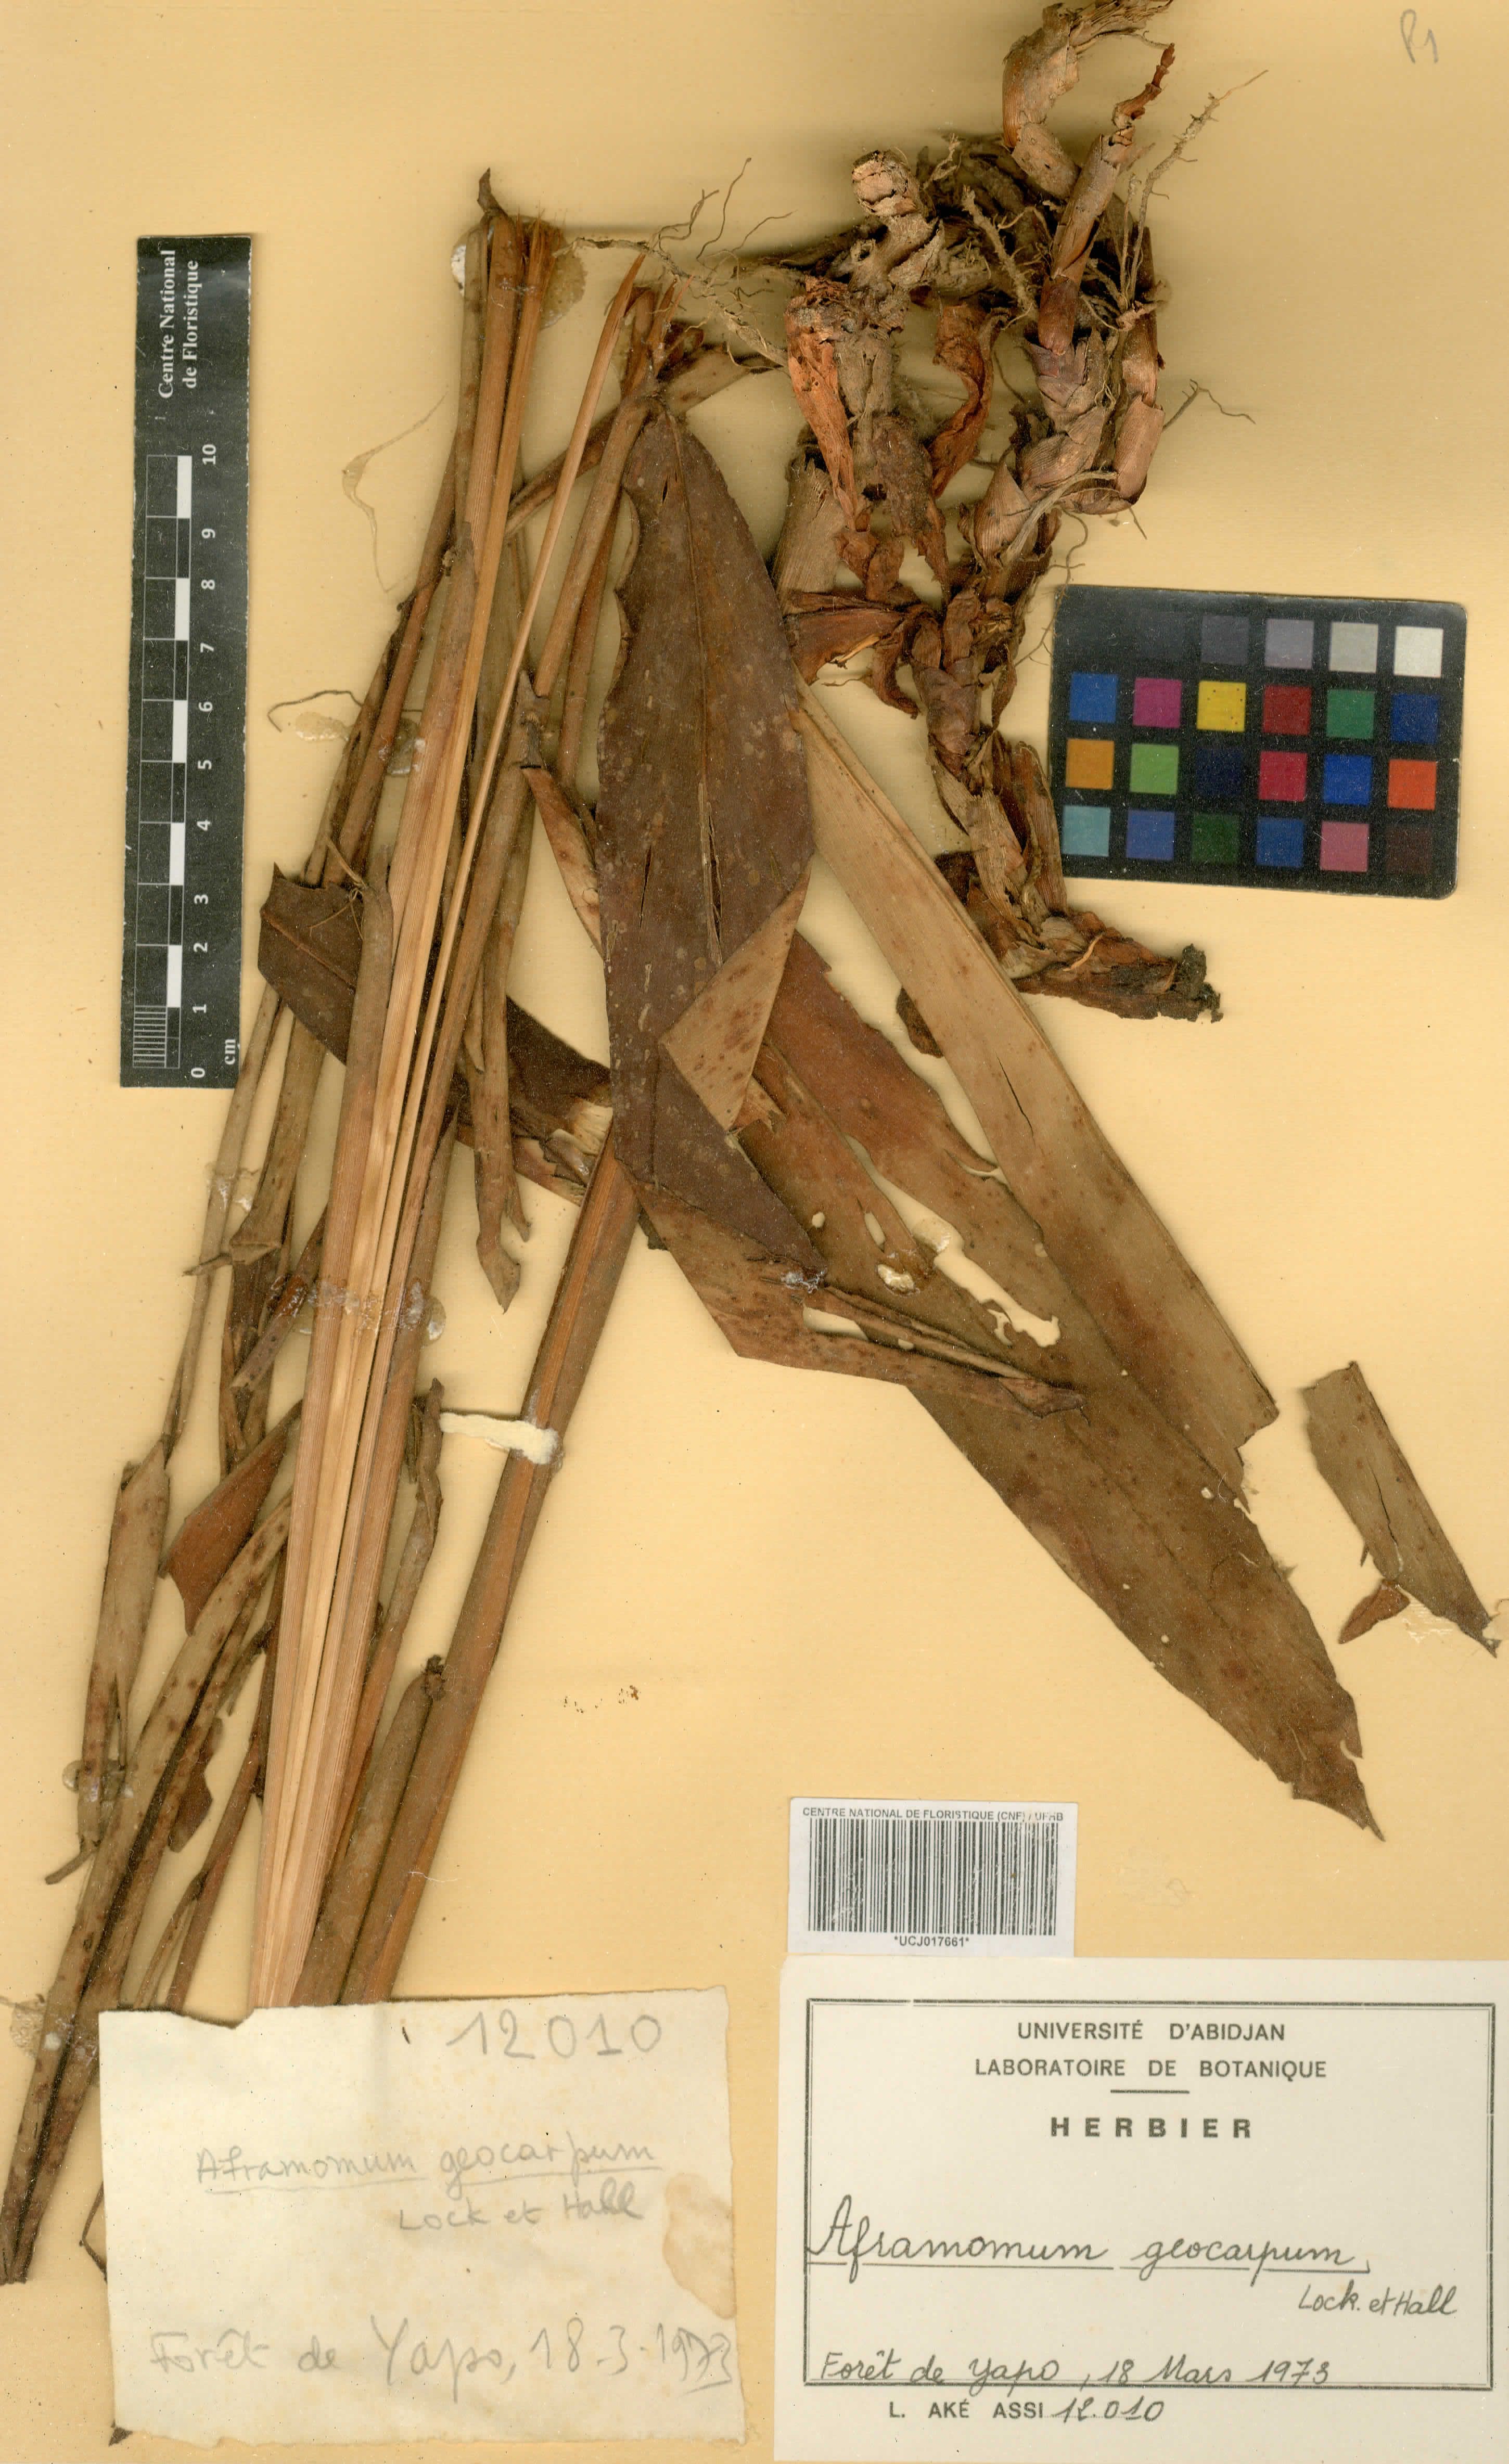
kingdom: Plantae
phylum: Tracheophyta
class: Liliopsida
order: Zingiberales
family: Zingiberaceae
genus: Aframomum
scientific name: Aframomum limbatum
